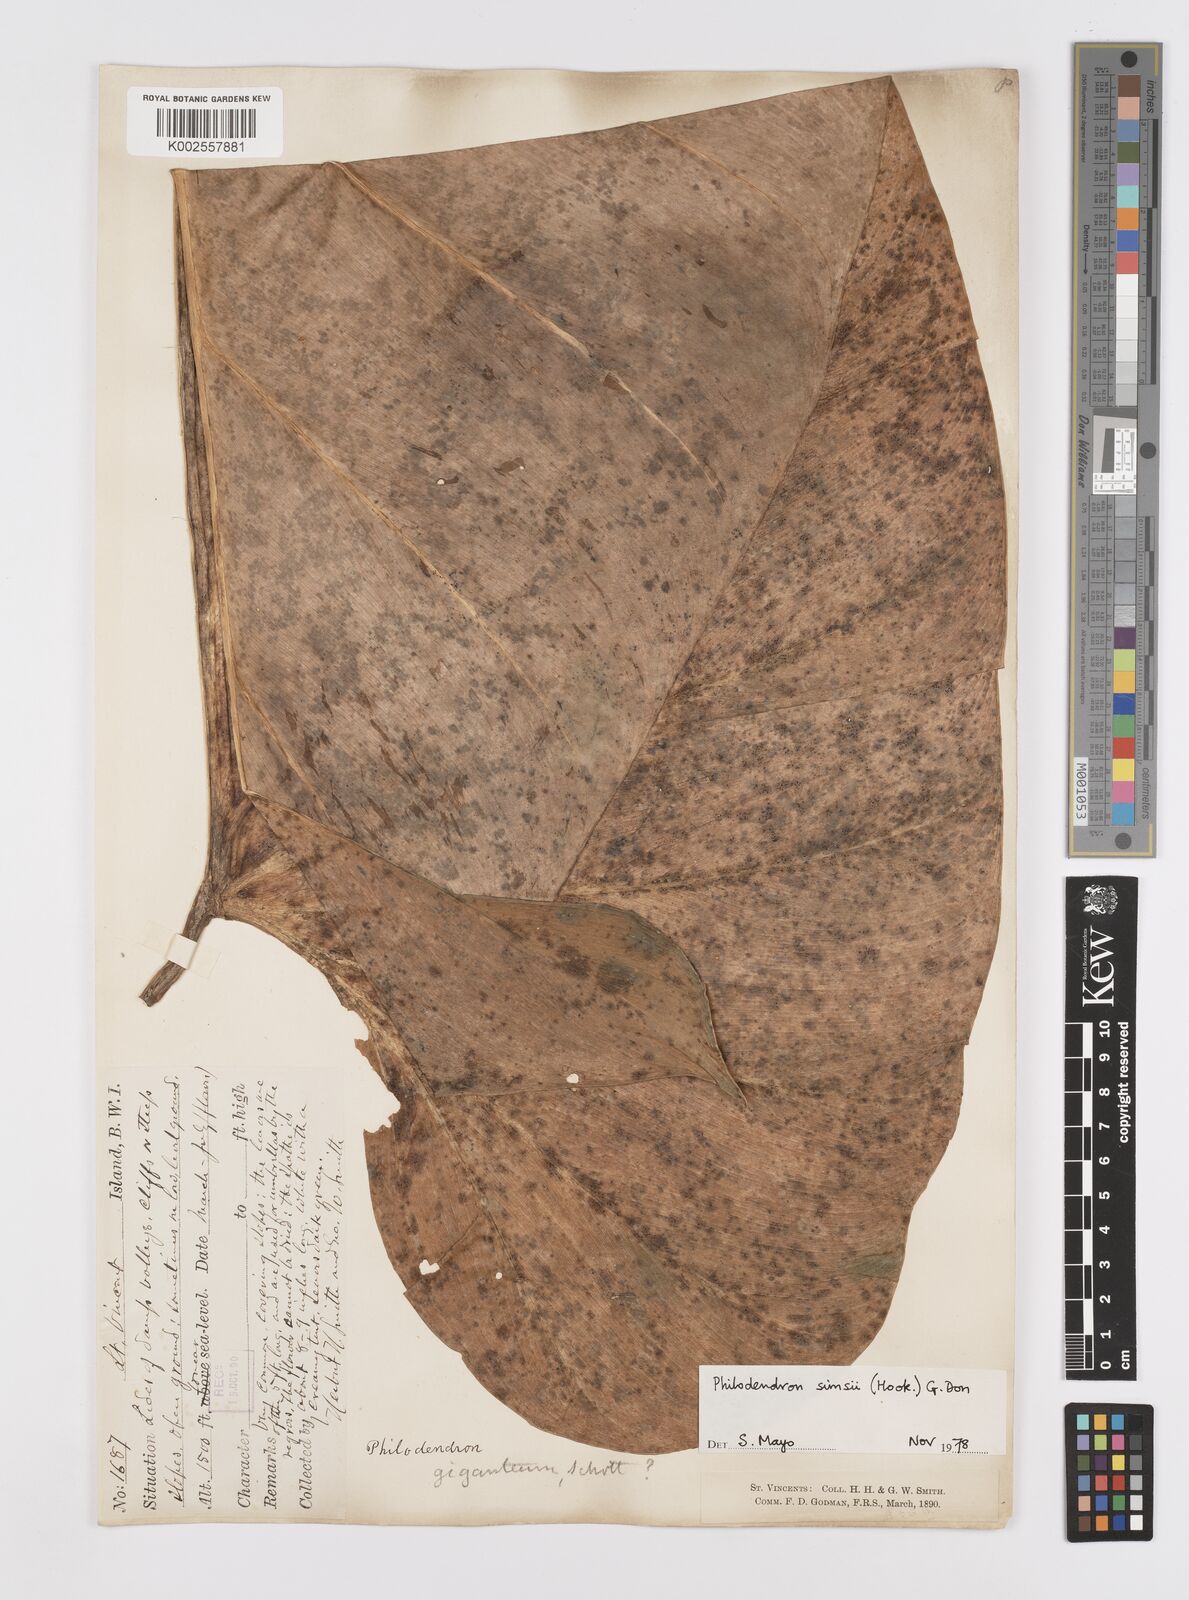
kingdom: Plantae
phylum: Tracheophyta
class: Liliopsida
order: Alismatales
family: Araceae
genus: Philodendron
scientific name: Philodendron
